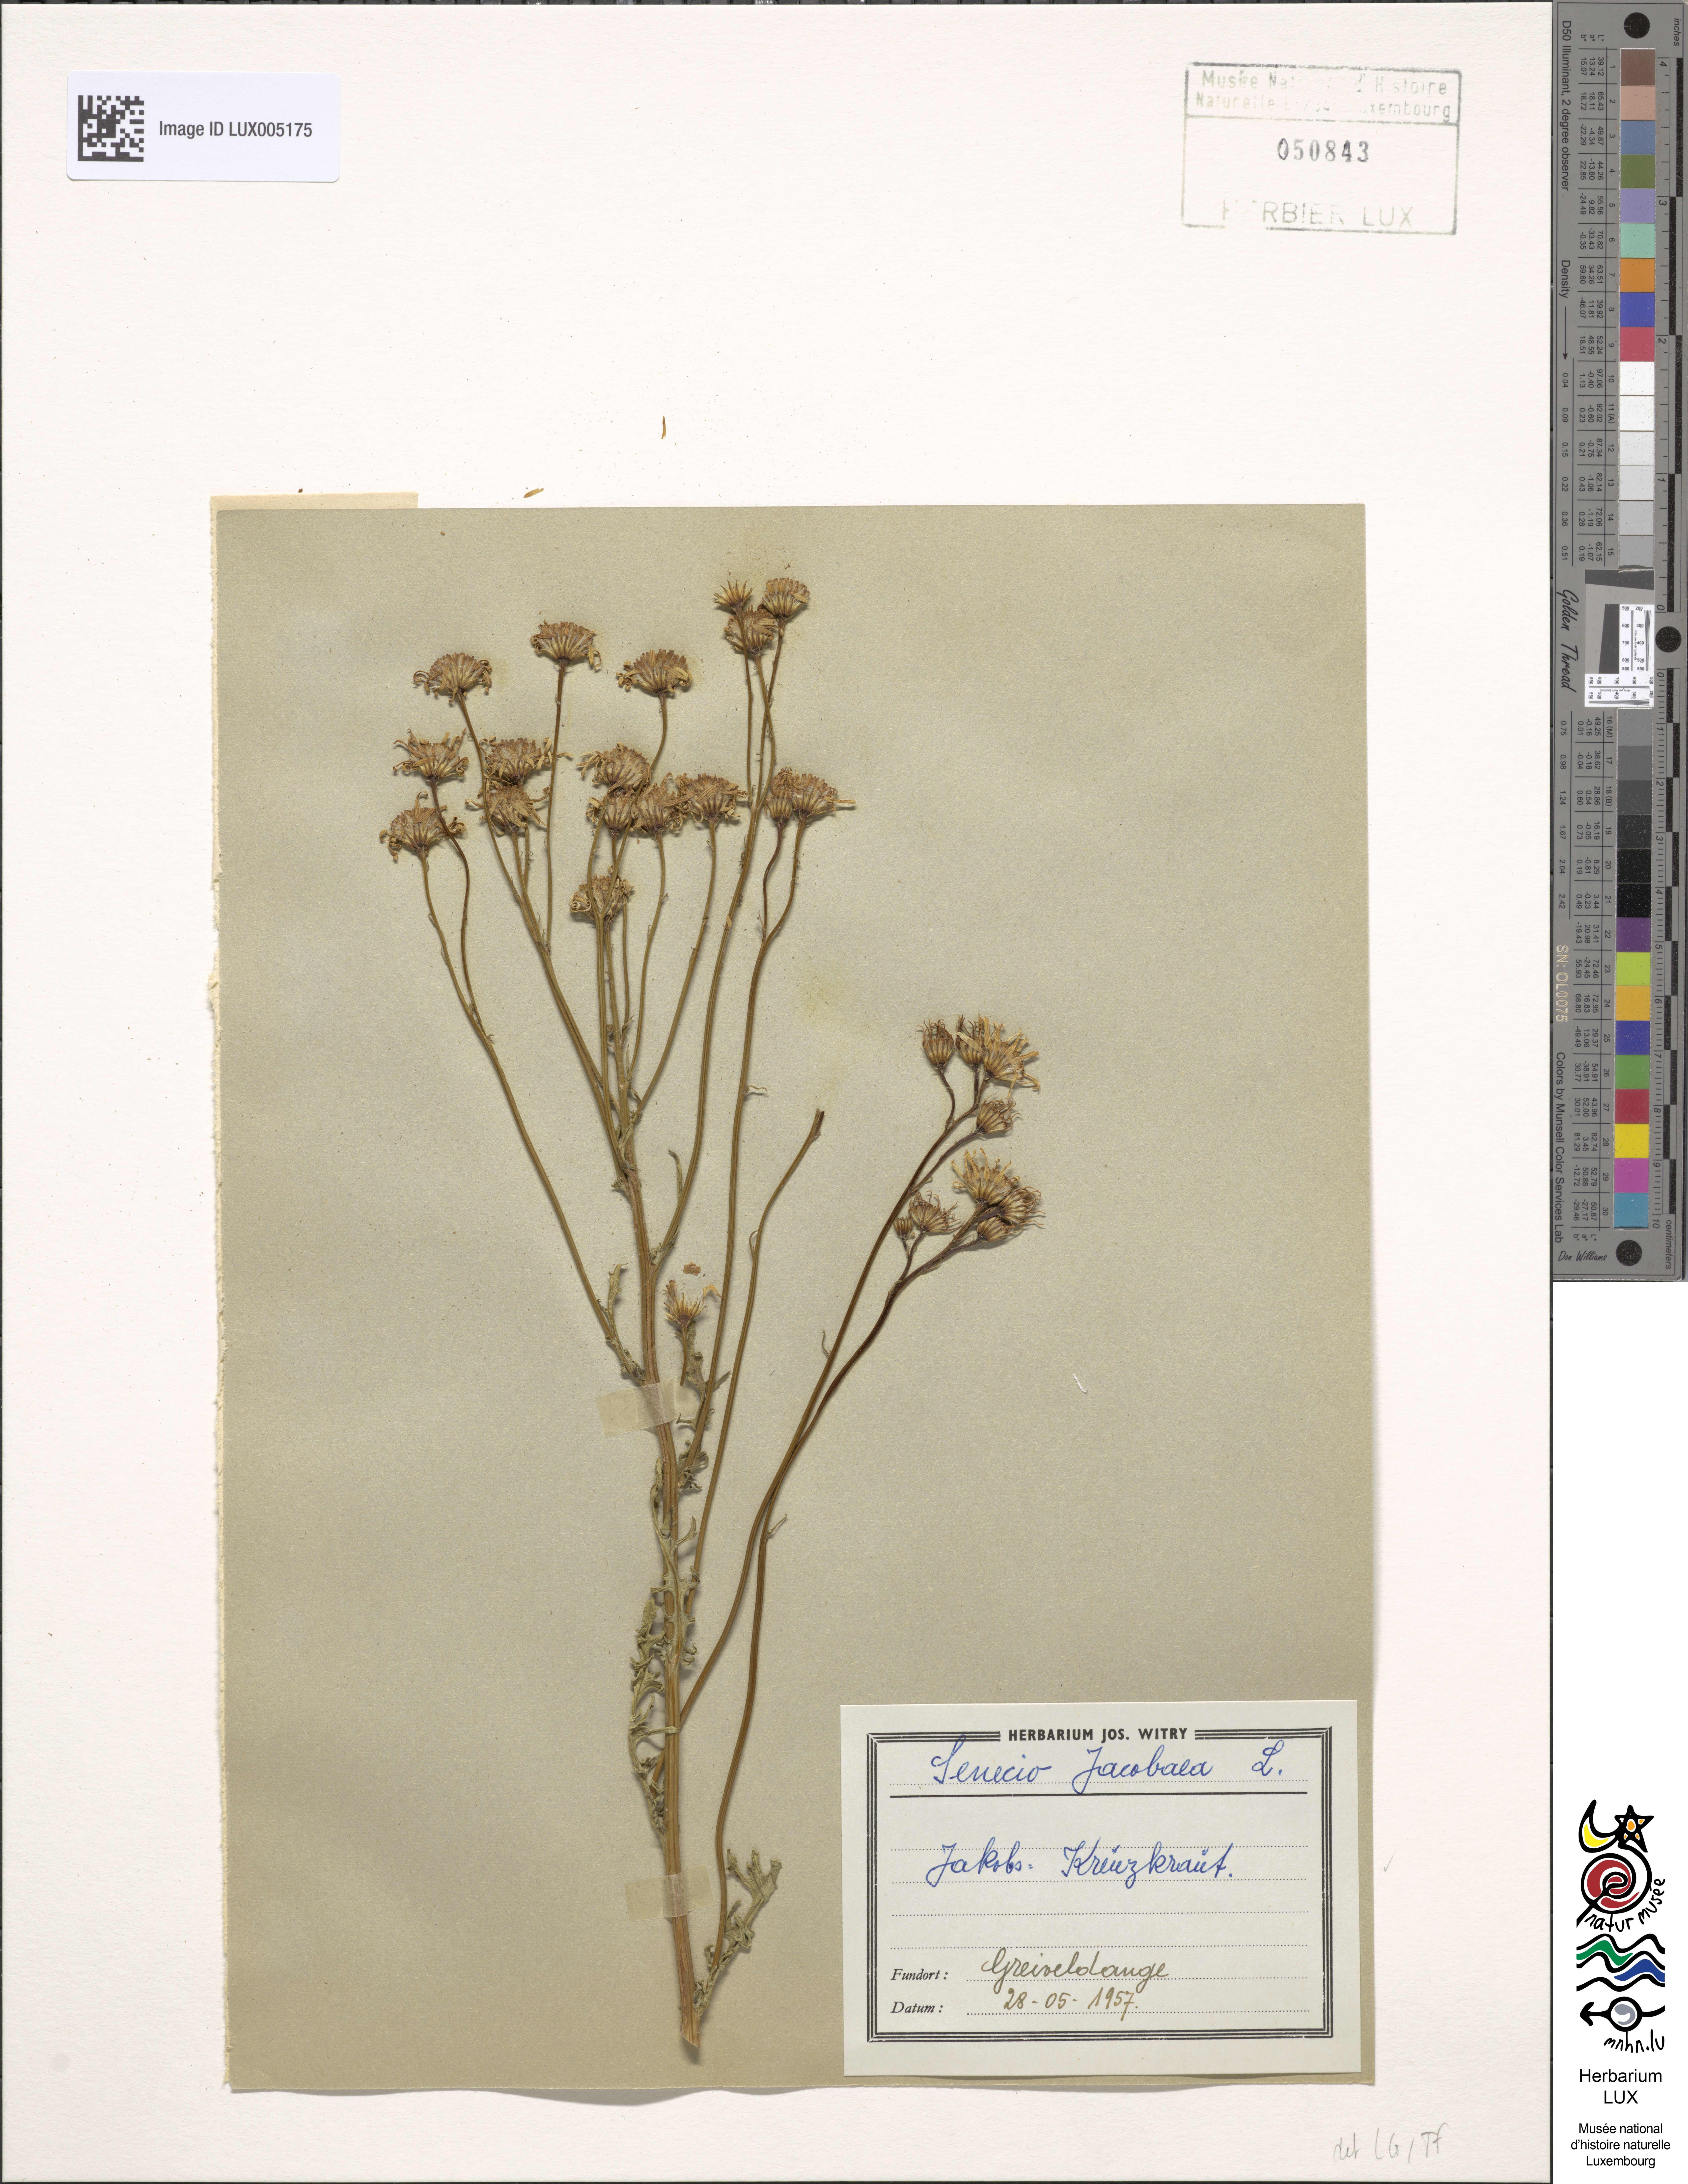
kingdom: Plantae
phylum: Tracheophyta
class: Magnoliopsida
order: Asterales
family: Asteraceae
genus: Jacobaea
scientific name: Jacobaea vulgaris
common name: Stinking willie
